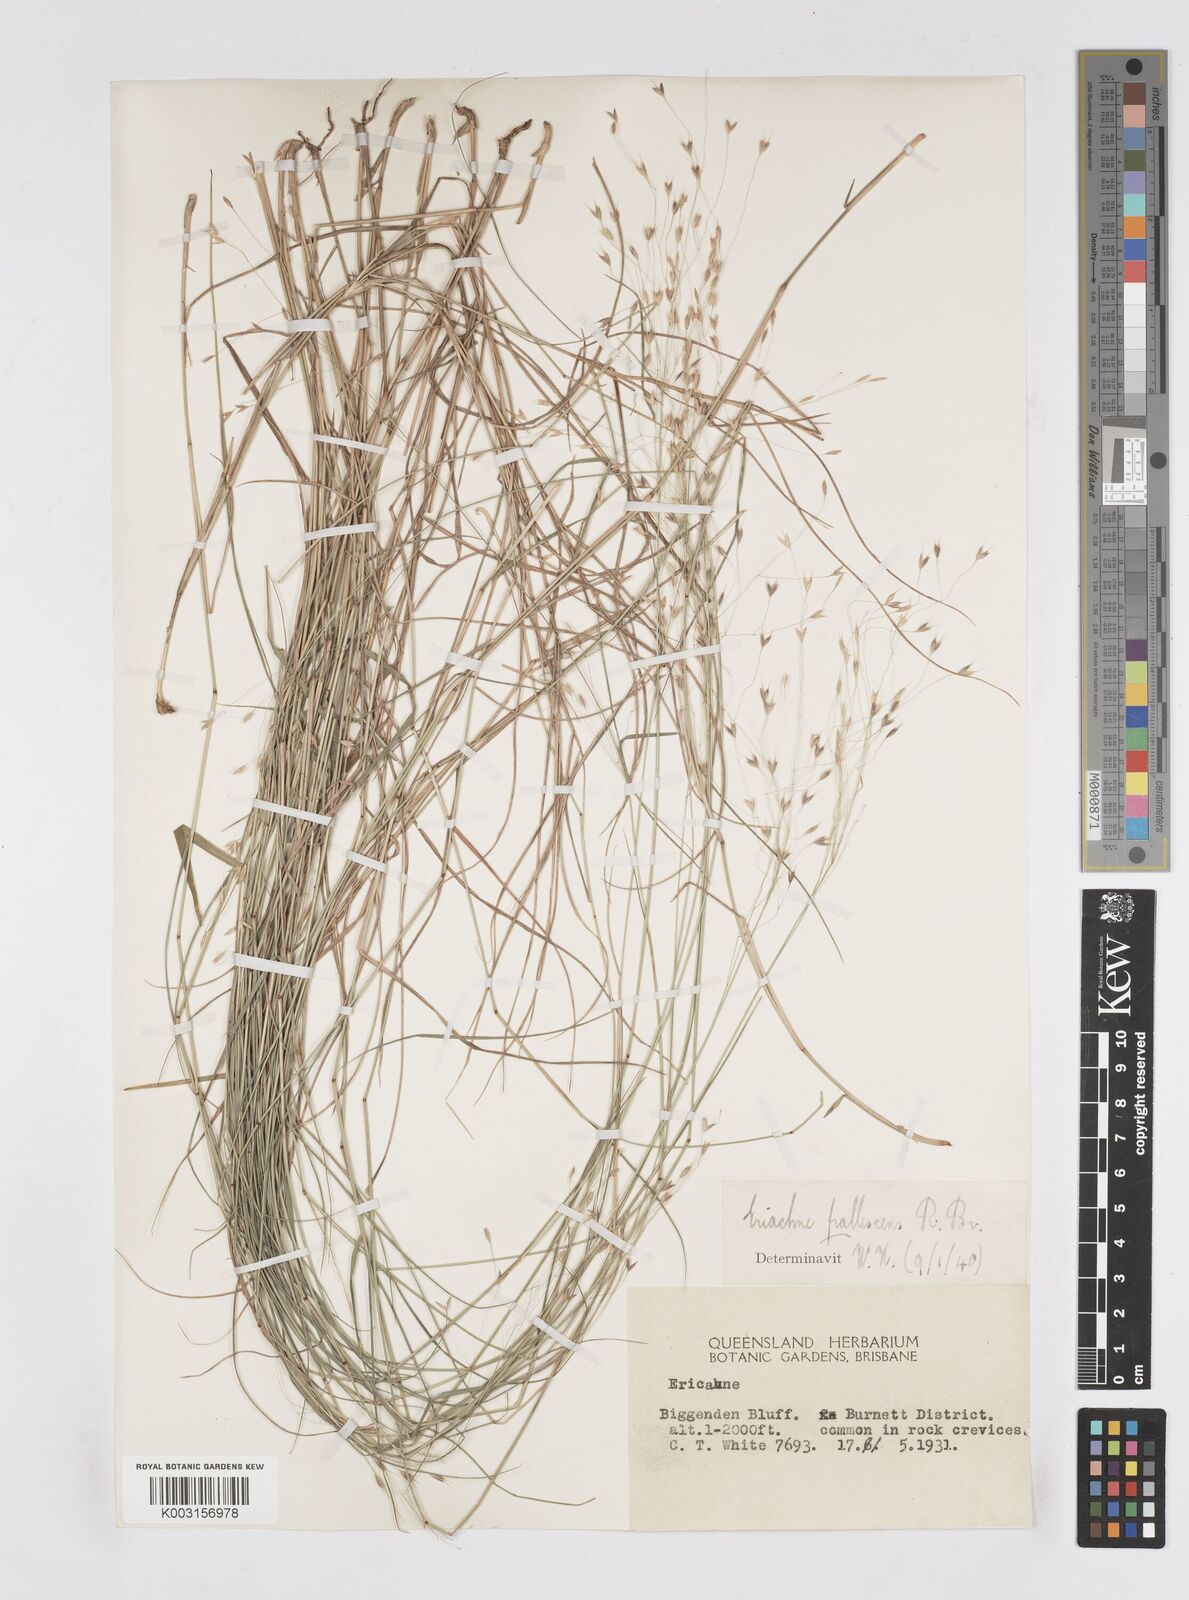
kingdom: Plantae
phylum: Tracheophyta
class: Liliopsida
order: Poales
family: Poaceae
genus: Eriachne
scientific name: Eriachne pallescens
